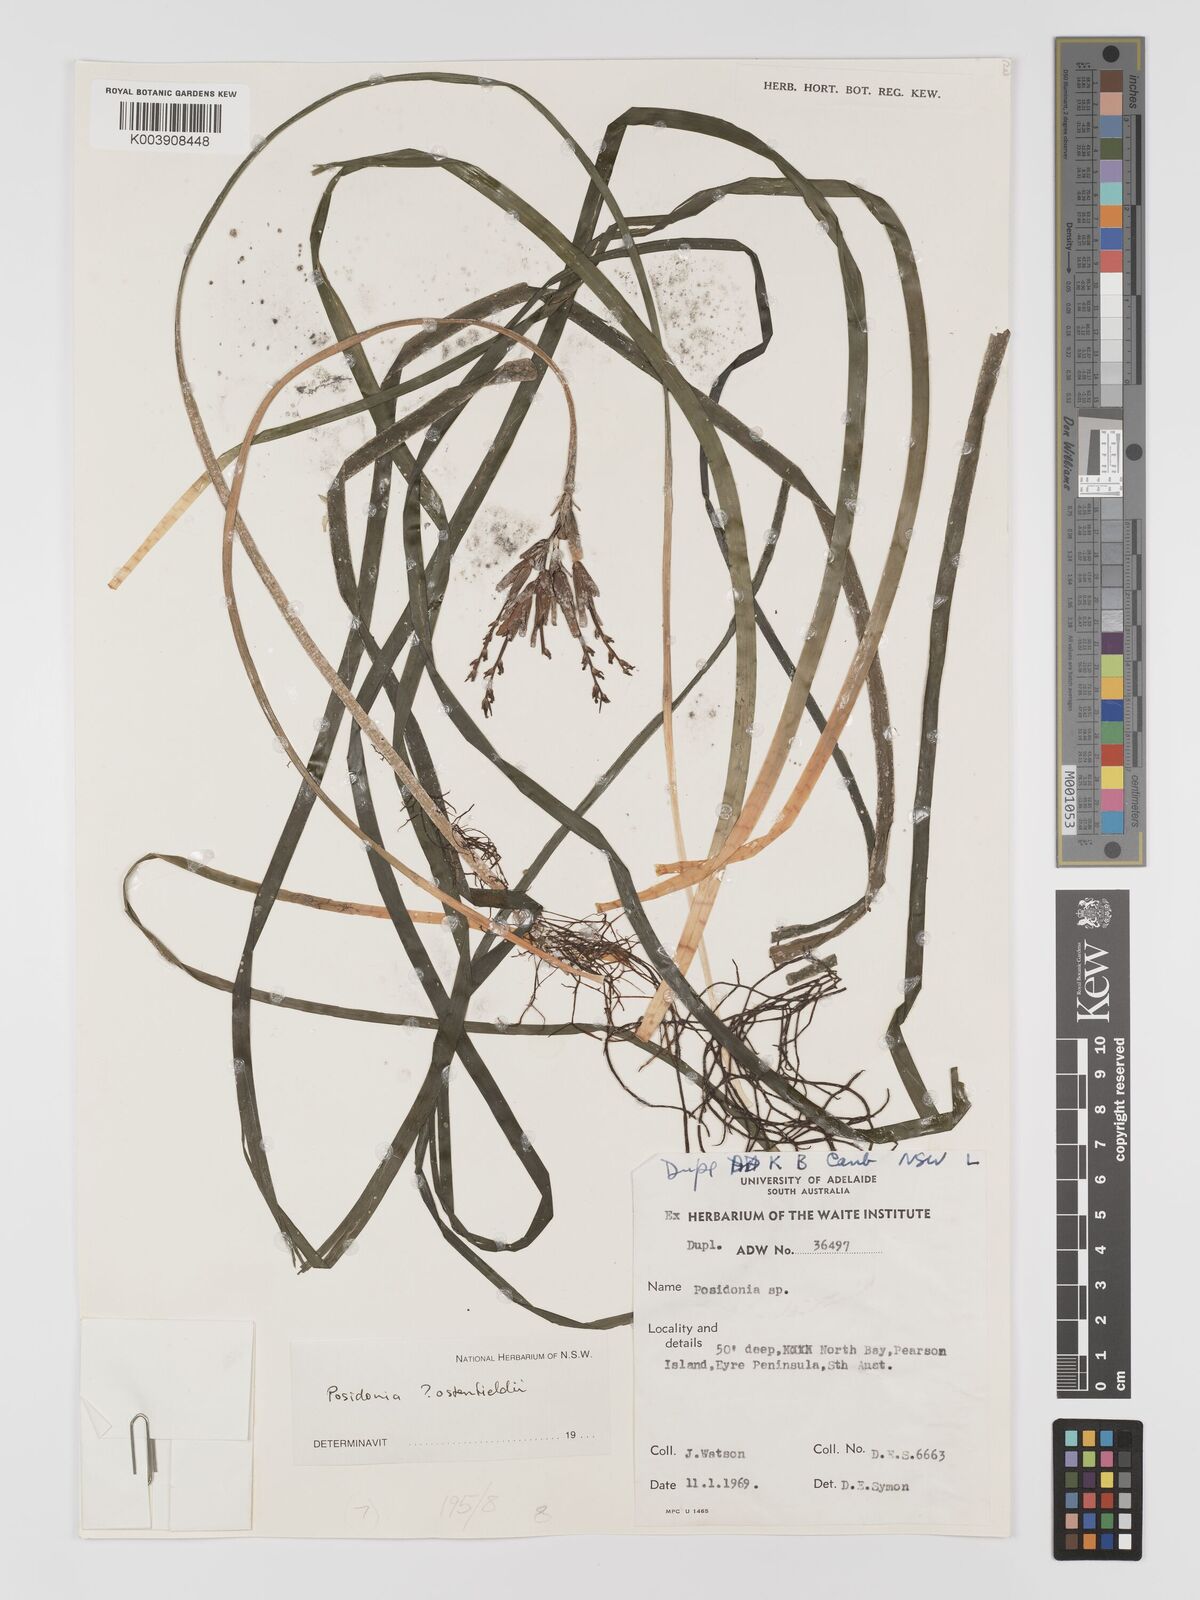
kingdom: Plantae
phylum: Tracheophyta
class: Liliopsida
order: Alismatales
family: Posidoniaceae
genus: Posidonia
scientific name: Posidonia ostenfeldii
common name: Species code: pf
